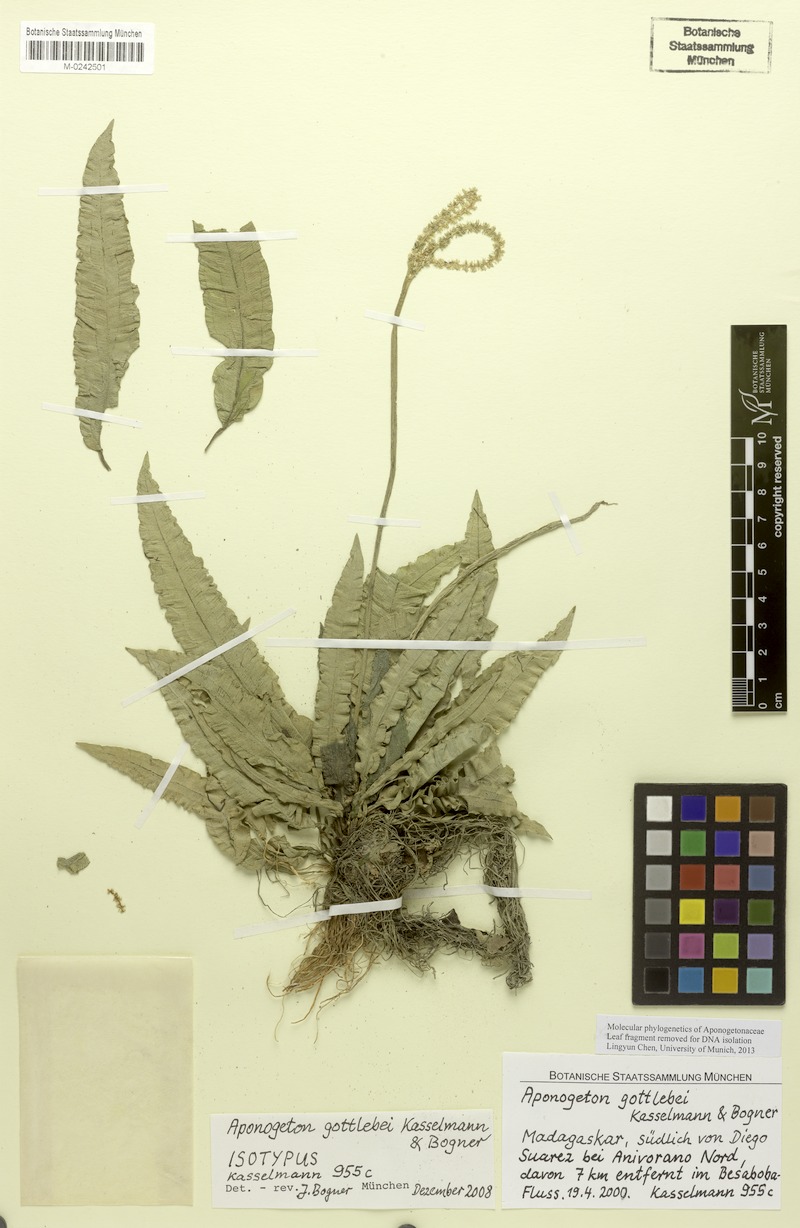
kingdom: Plantae
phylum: Tracheophyta
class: Liliopsida
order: Alismatales
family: Aponogetonaceae
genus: Aponogeton
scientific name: Aponogeton gottlebei
